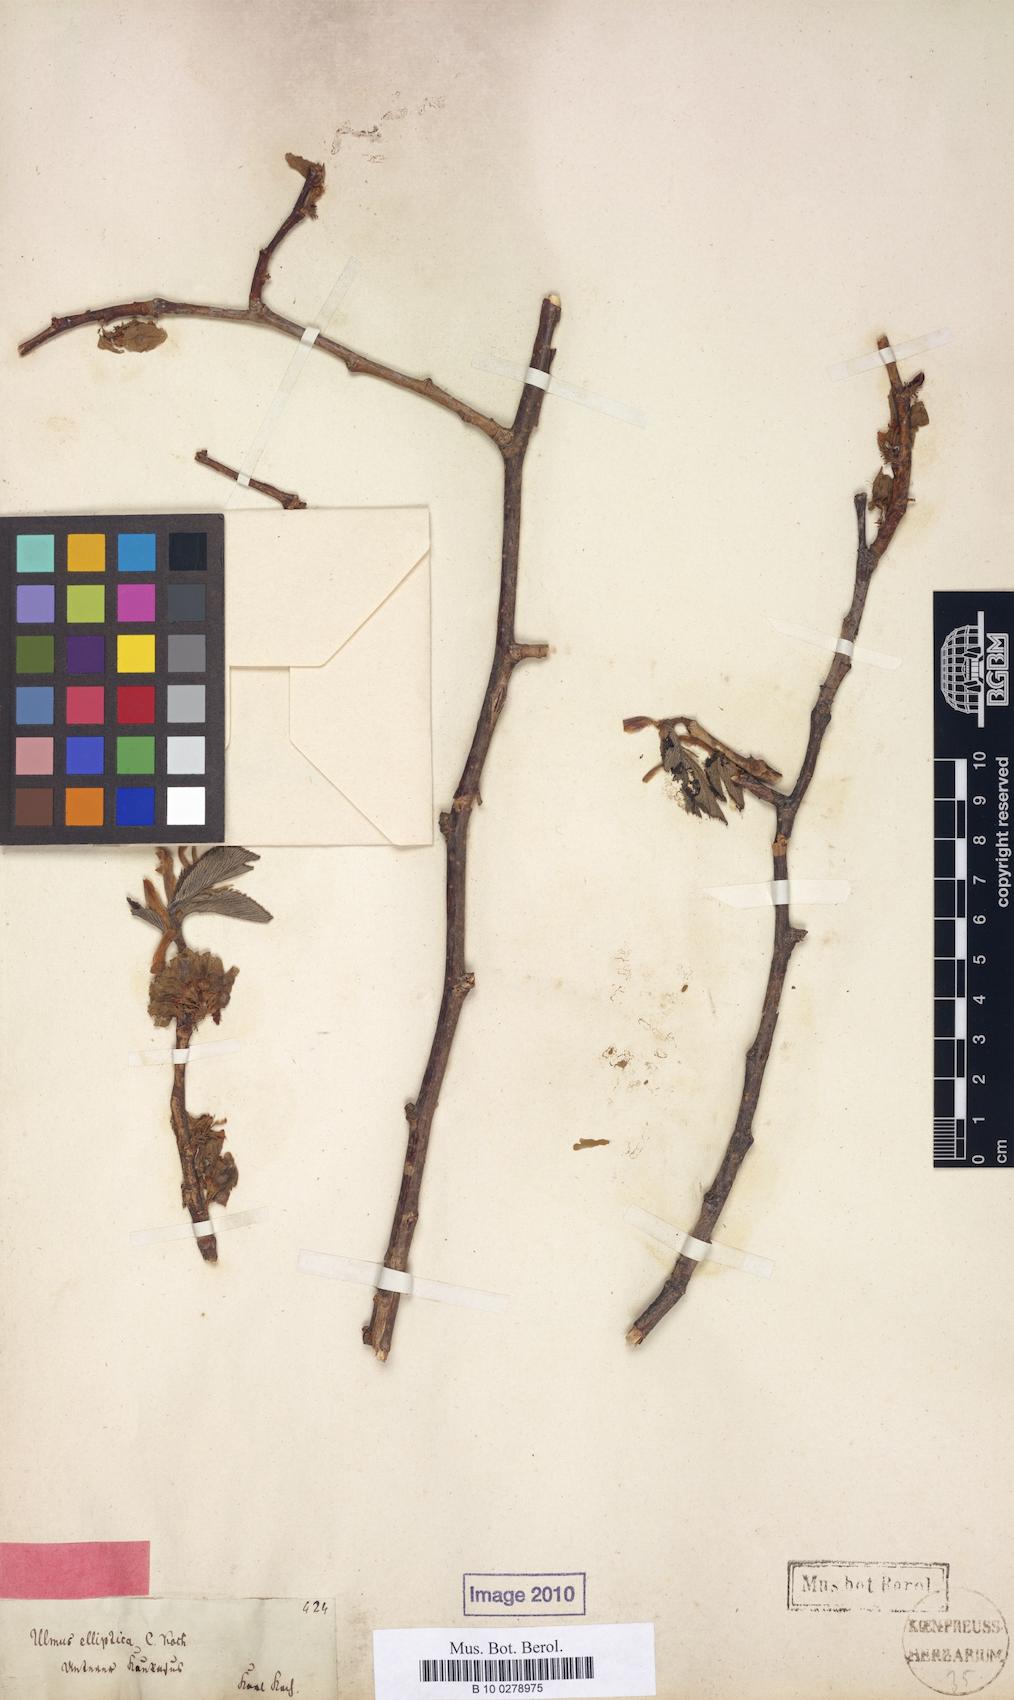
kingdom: Plantae
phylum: Tracheophyta
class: Magnoliopsida
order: Rosales
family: Ulmaceae
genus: Ulmus
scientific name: Ulmus glabra
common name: Wych elm
